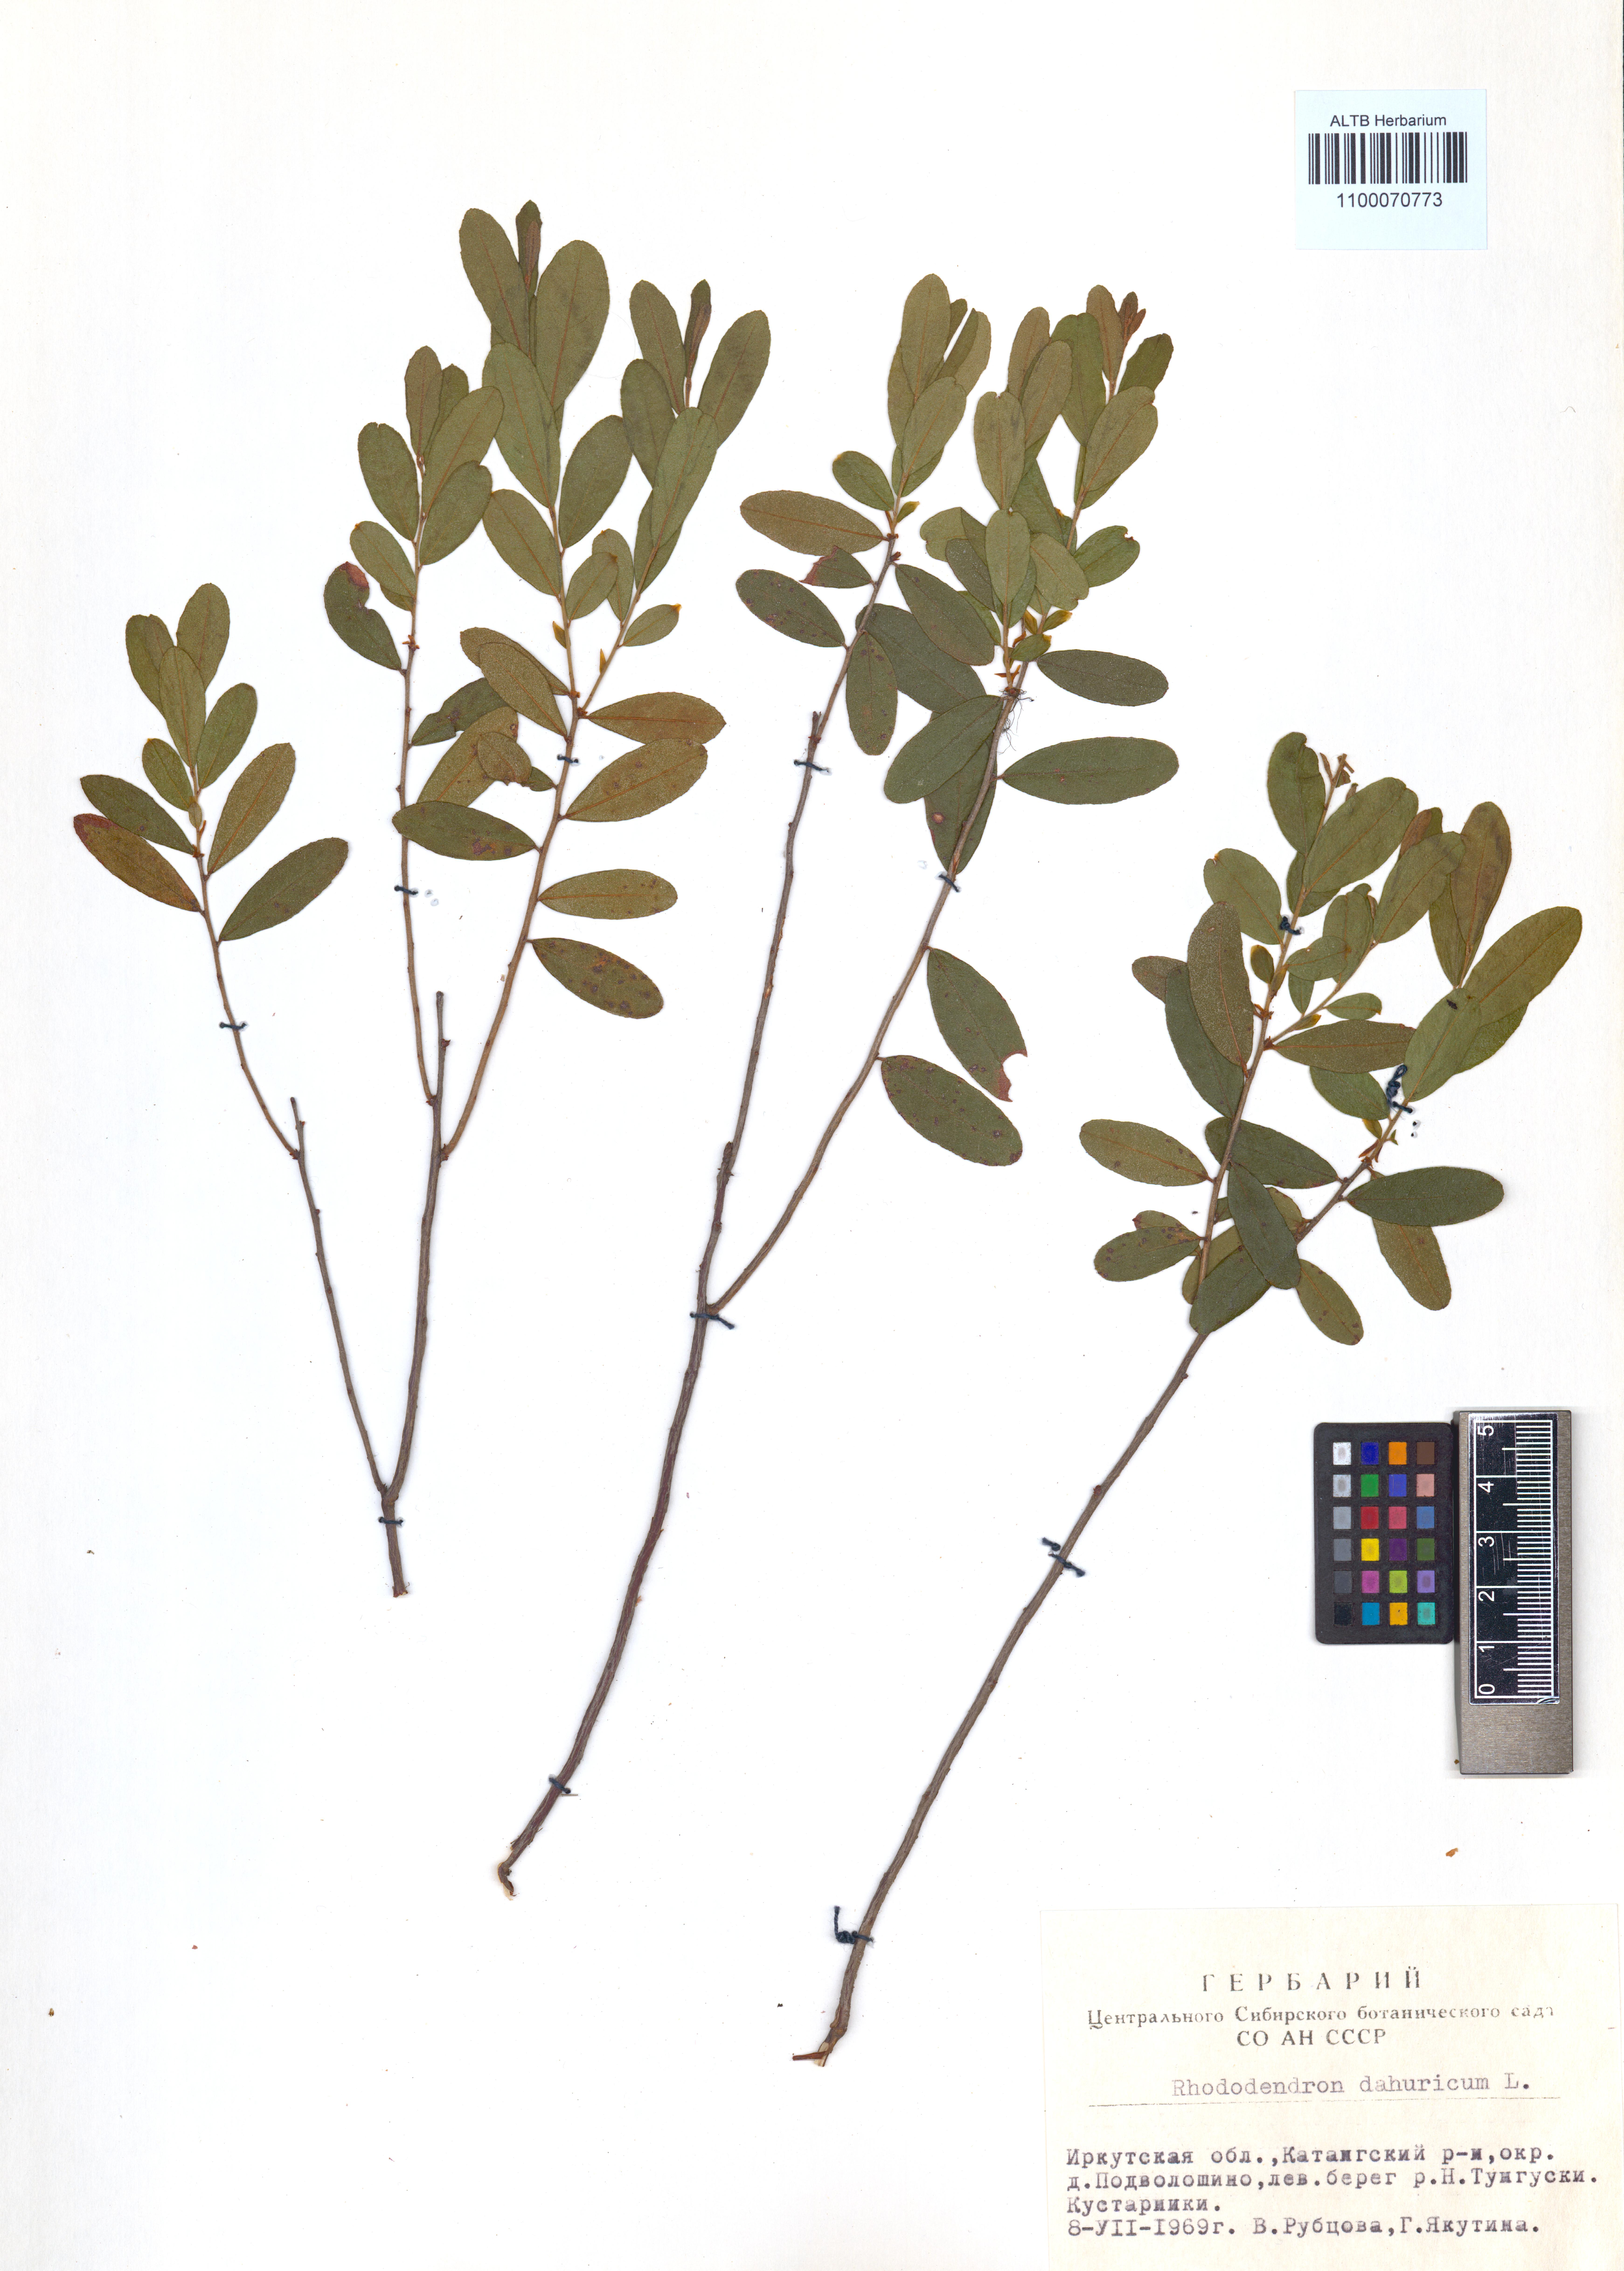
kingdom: Plantae
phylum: Tracheophyta
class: Magnoliopsida
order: Ericales
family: Ericaceae
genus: Rhododendron
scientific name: Rhododendron dauricum
